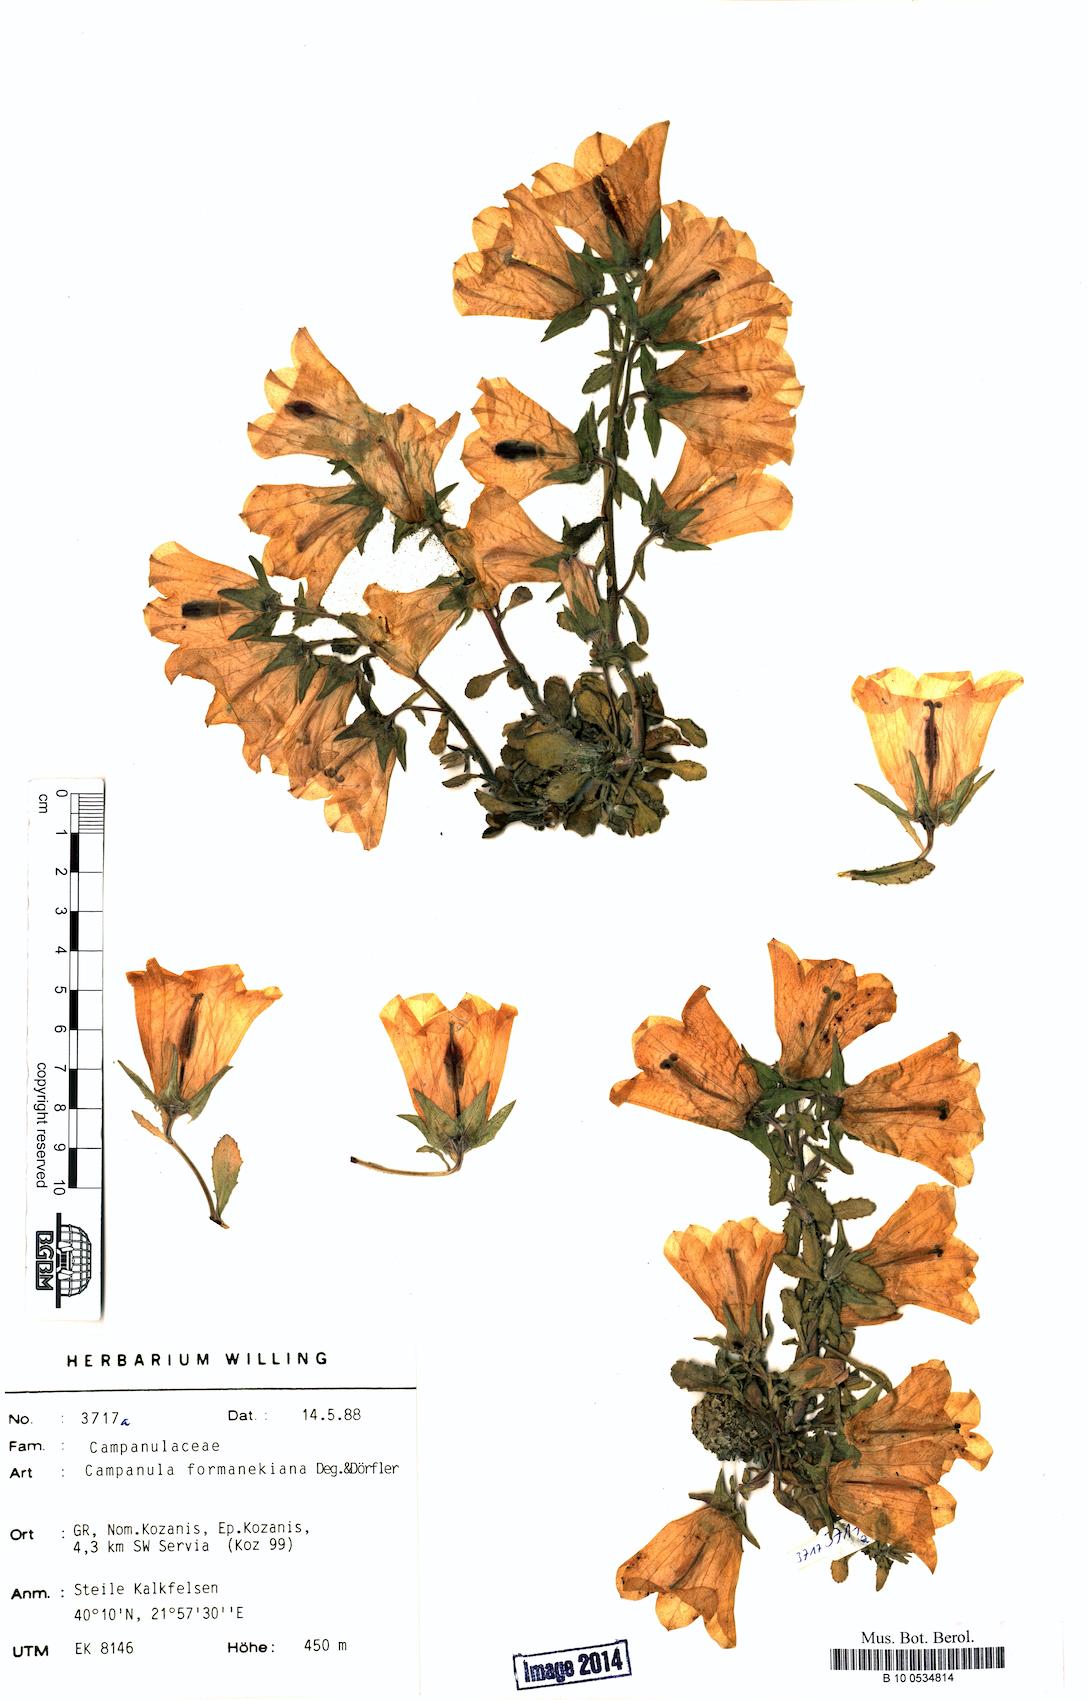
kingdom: Plantae
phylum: Tracheophyta
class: Magnoliopsida
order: Asterales
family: Campanulaceae
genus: Campanula
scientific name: Campanula formanekiana
